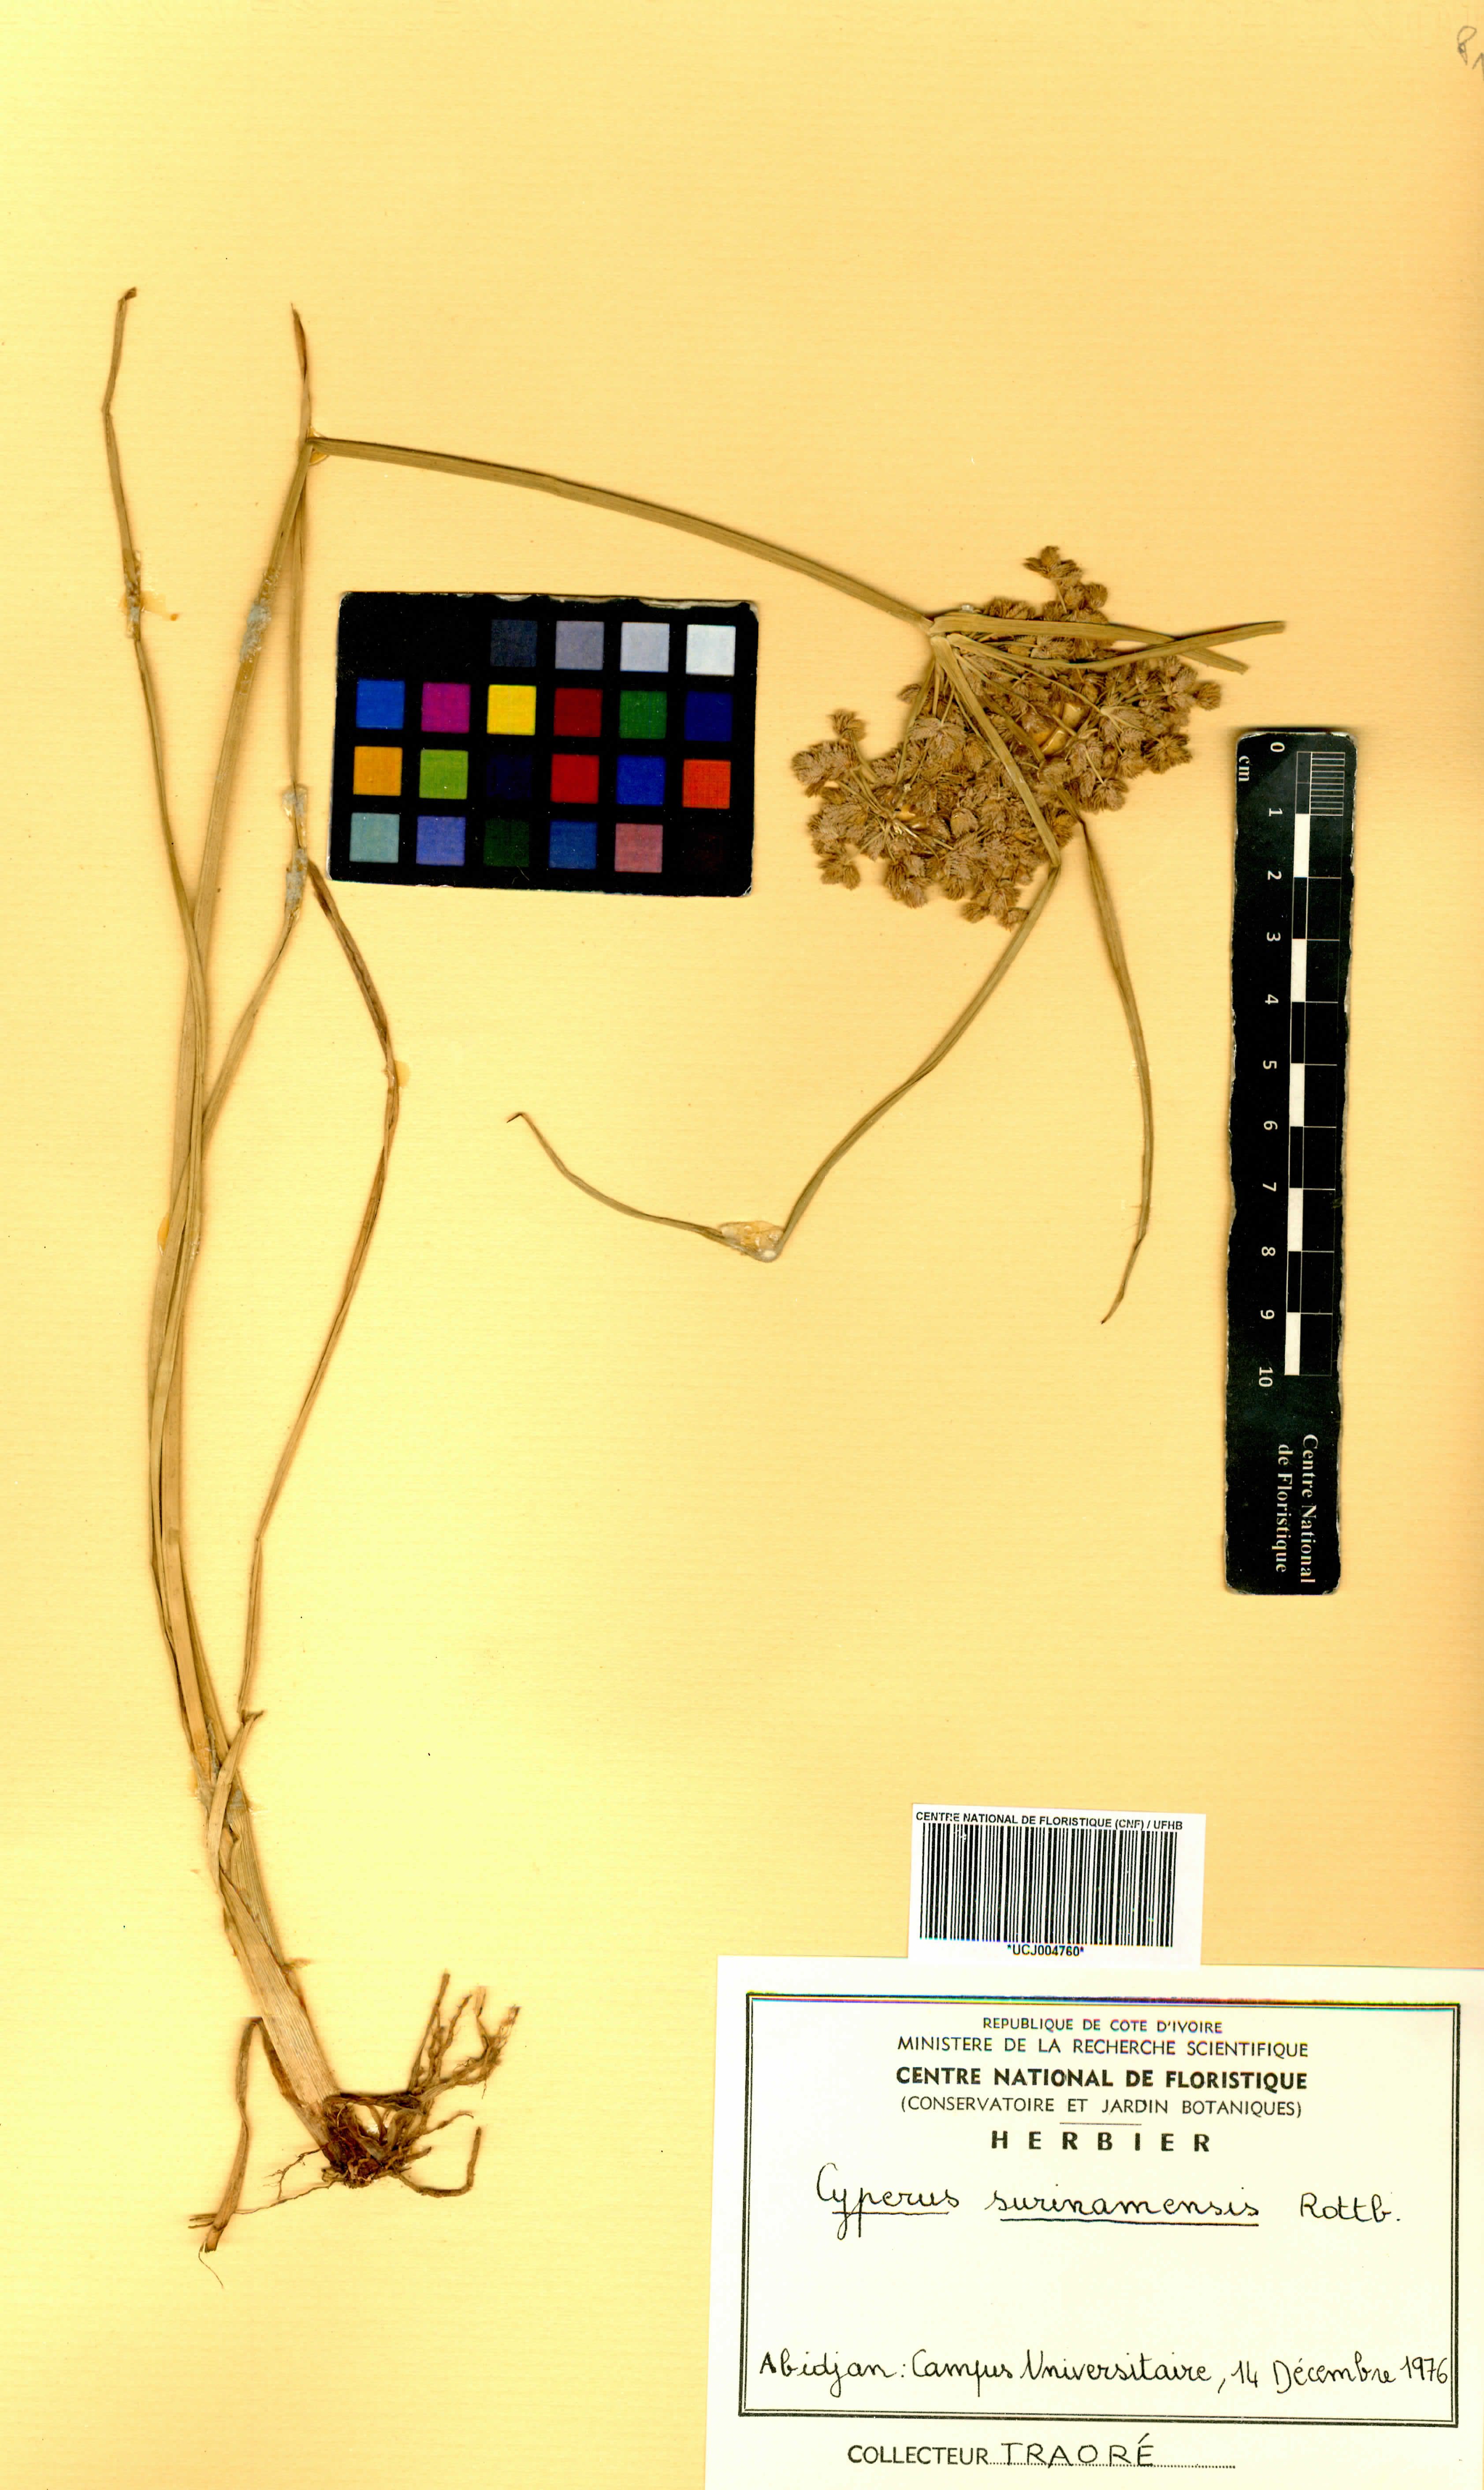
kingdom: Plantae
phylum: Tracheophyta
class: Liliopsida
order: Poales
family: Cyperaceae
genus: Cyperus
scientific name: Cyperus surinamensis
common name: Tropical flat sedge
